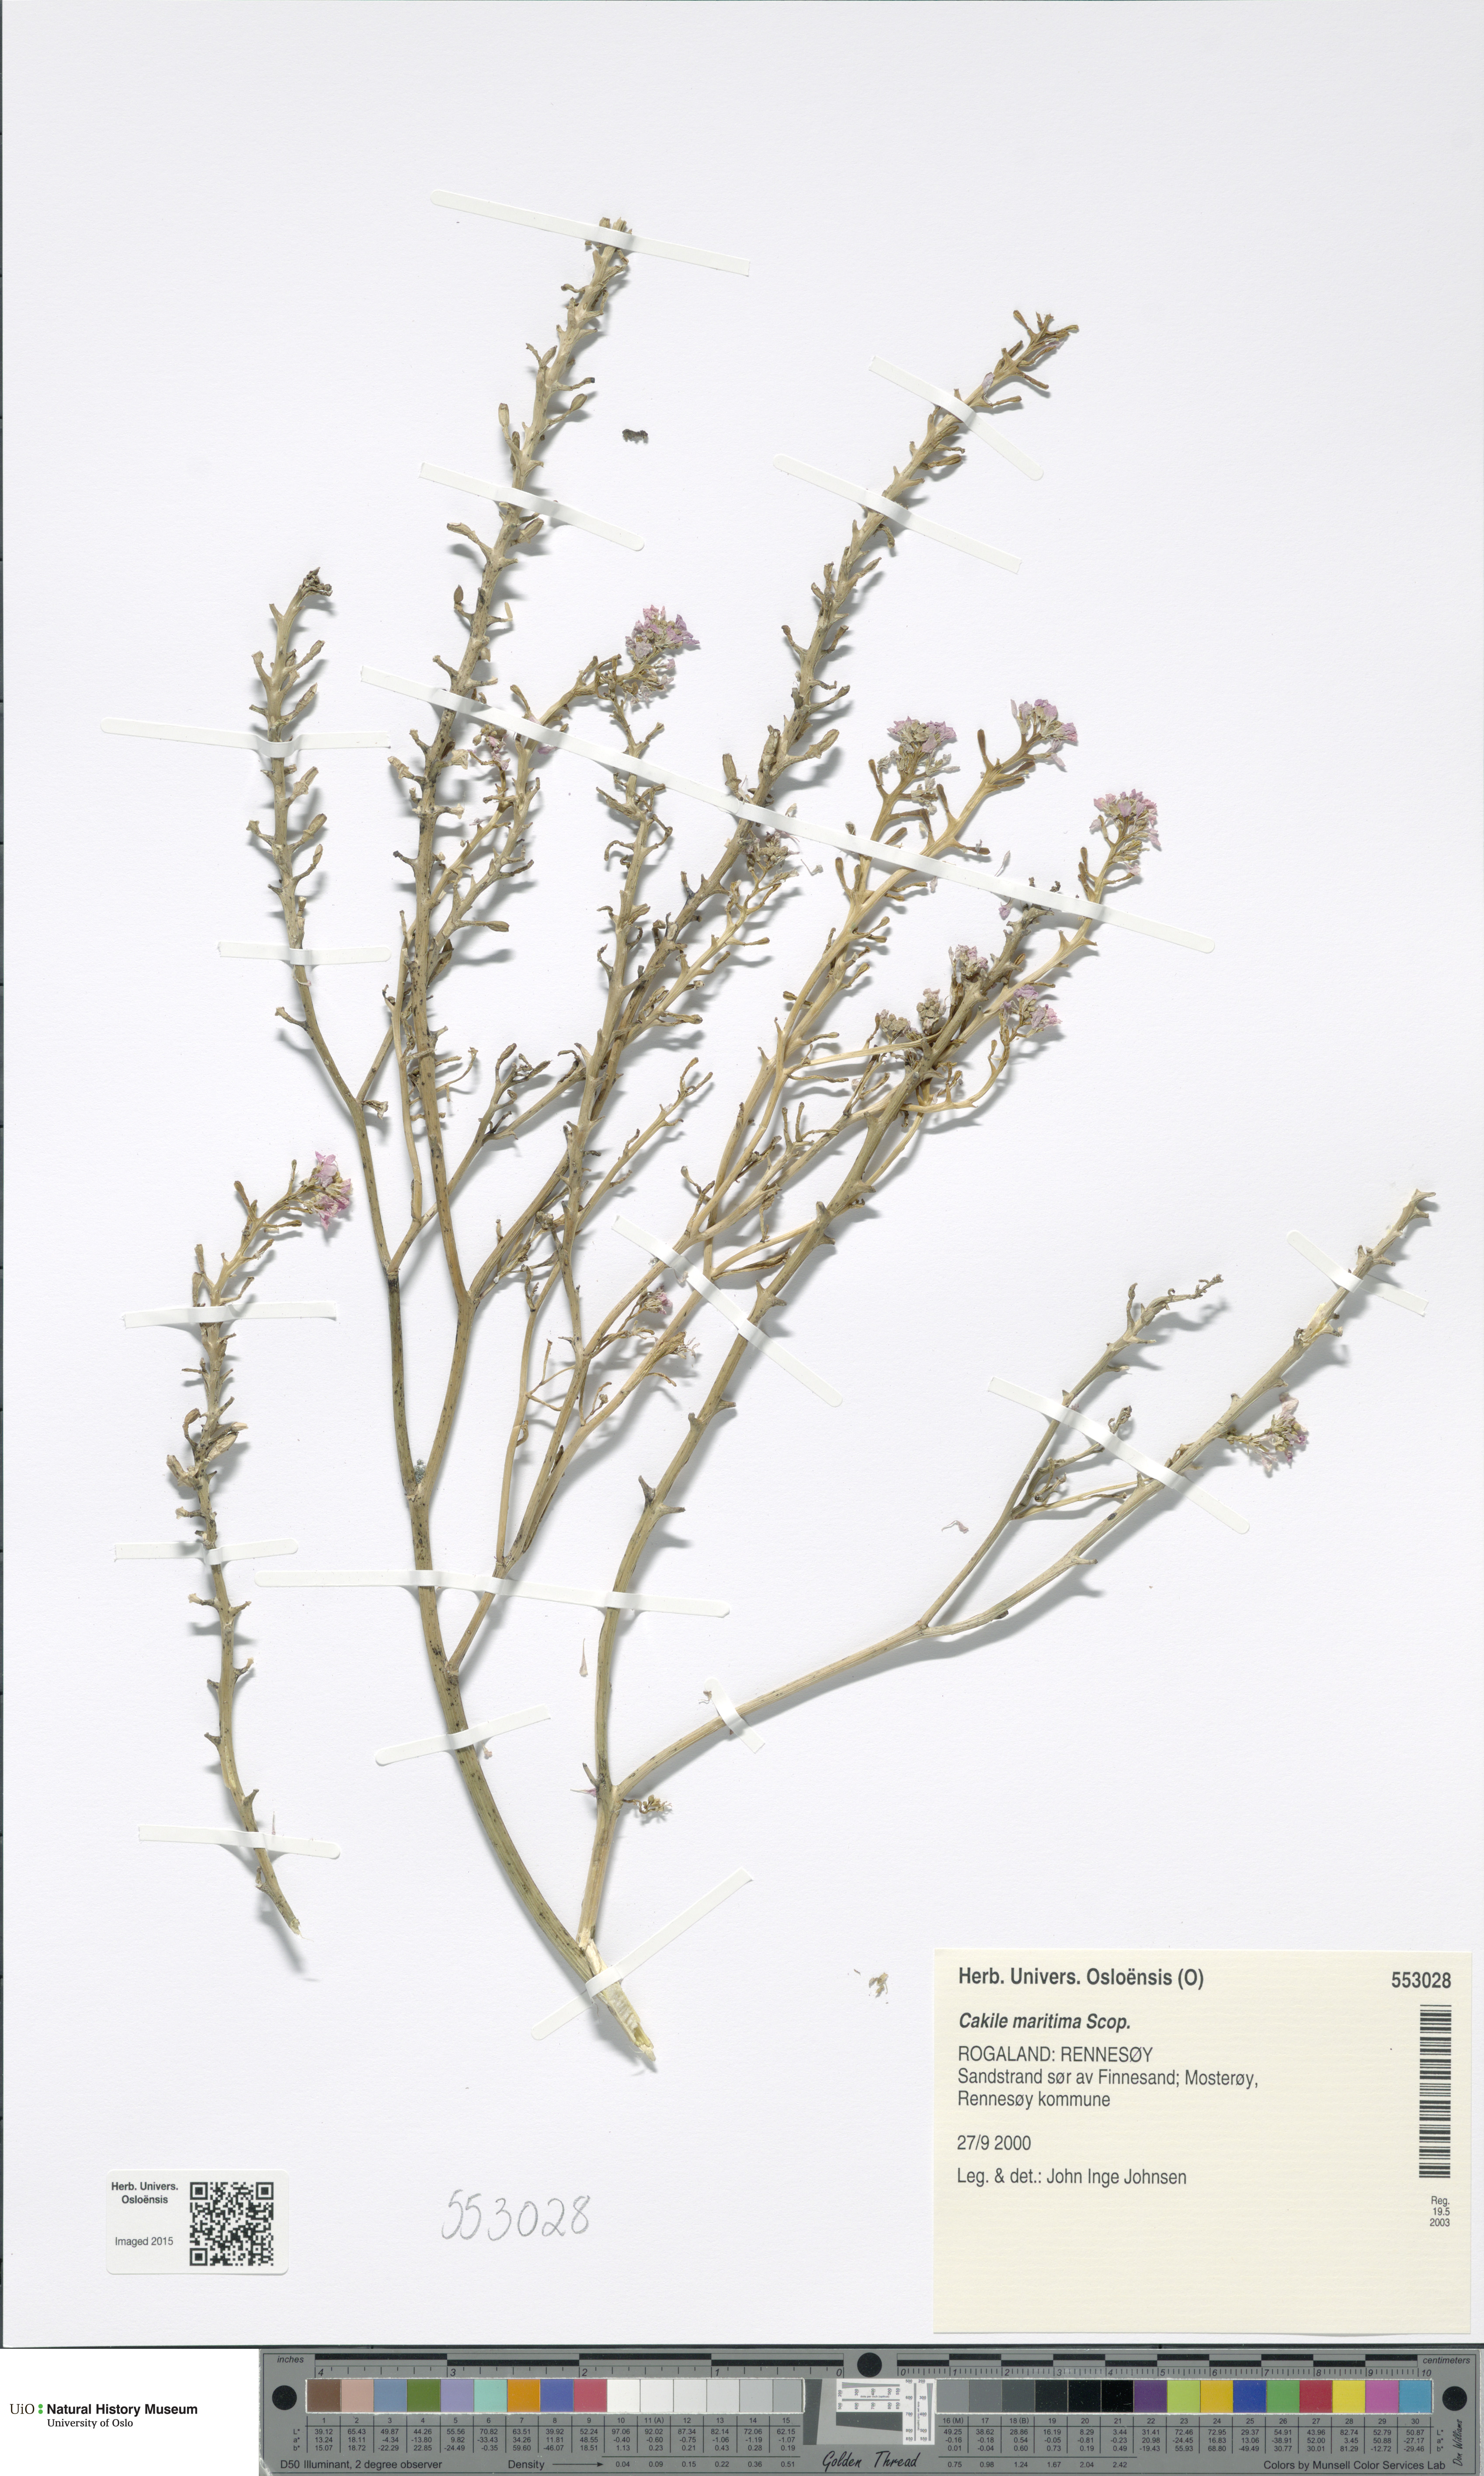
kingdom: Plantae
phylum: Tracheophyta
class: Magnoliopsida
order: Brassicales
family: Brassicaceae
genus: Cakile
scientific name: Cakile maritima
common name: Sea rocket
